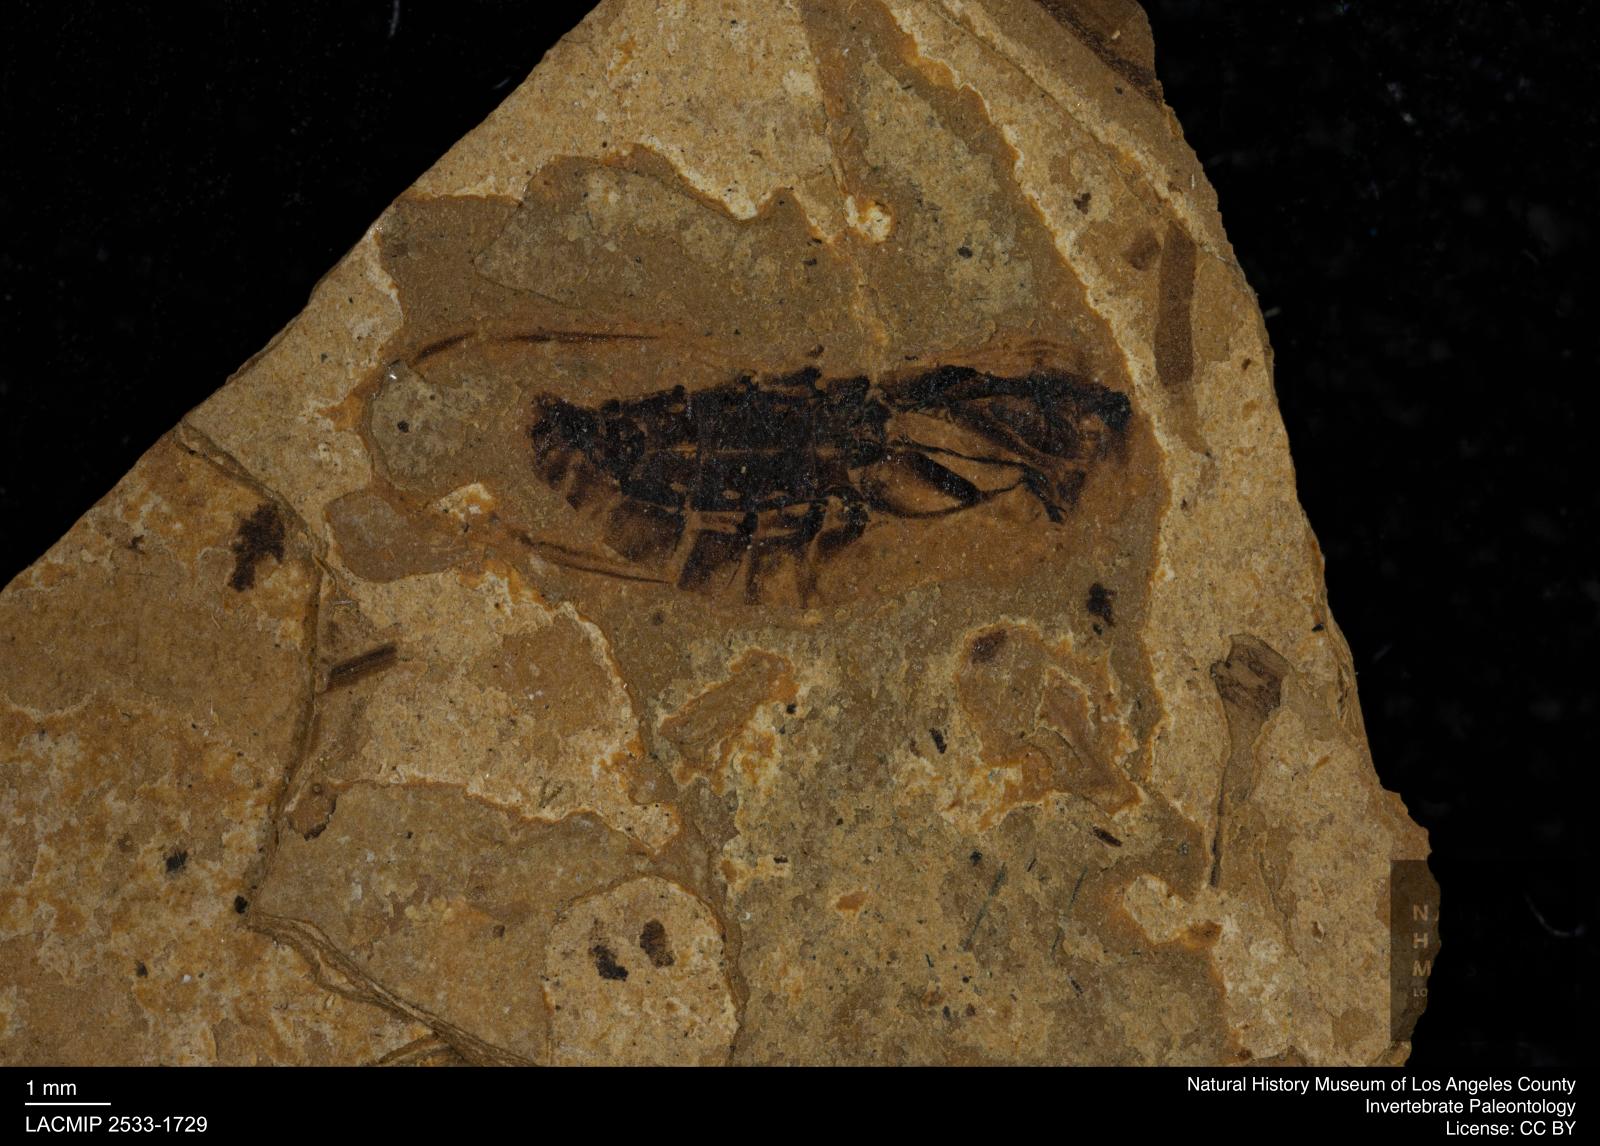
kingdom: Animalia
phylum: Arthropoda
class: Insecta
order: Hemiptera
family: Notonectidae
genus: Notonecta
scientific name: Notonecta
